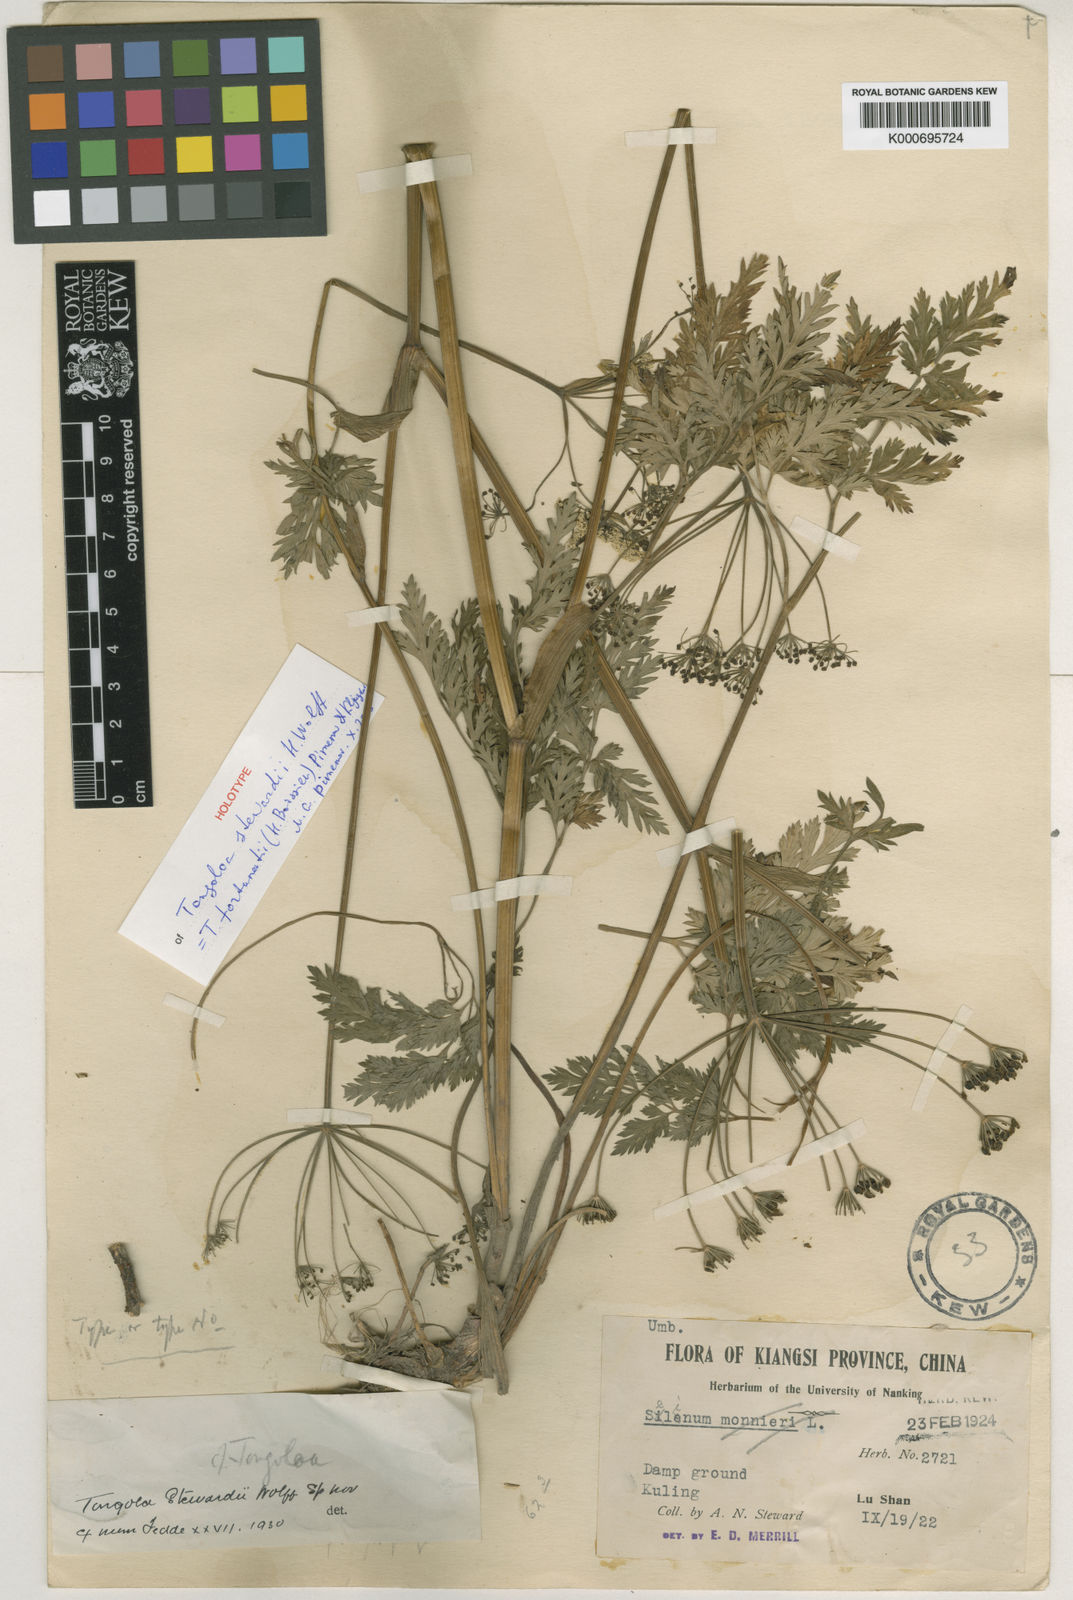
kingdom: Plantae
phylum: Tracheophyta
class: Magnoliopsida
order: Apiales
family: Apiaceae
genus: Tongoloa
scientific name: Tongoloa fortunatii
